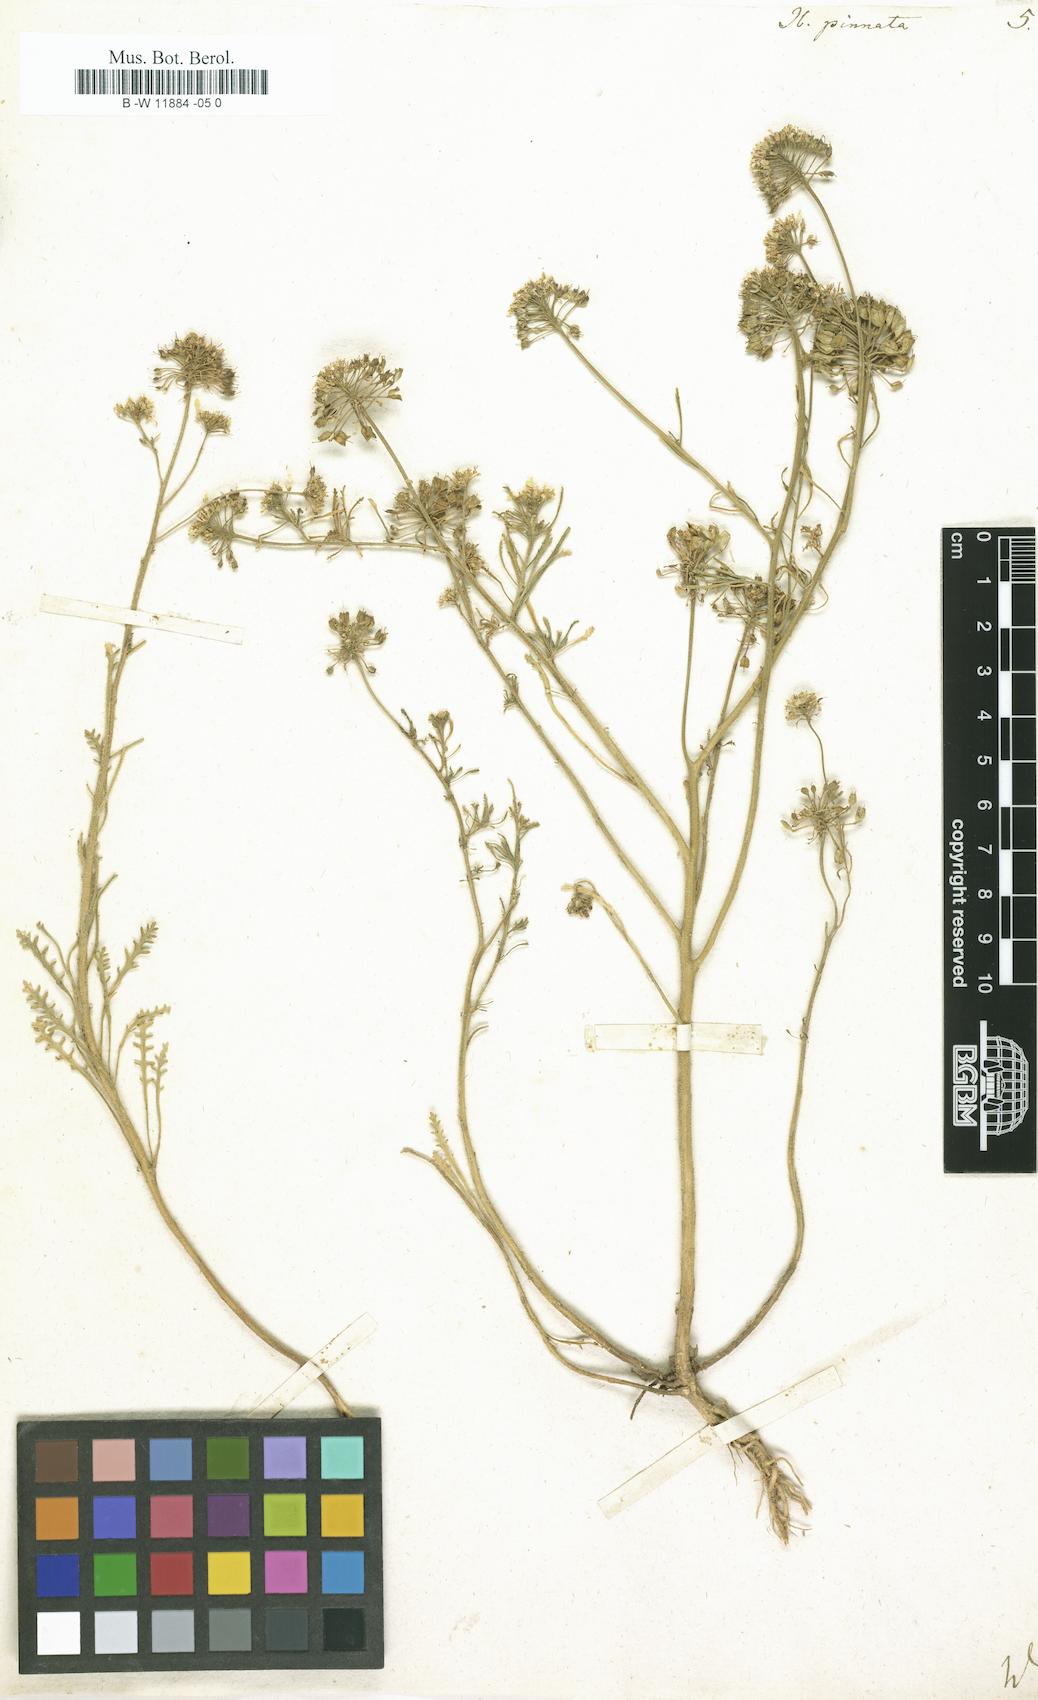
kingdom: Plantae
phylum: Tracheophyta
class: Magnoliopsida
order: Brassicales
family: Brassicaceae
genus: Iberis
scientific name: Iberis pinnata
